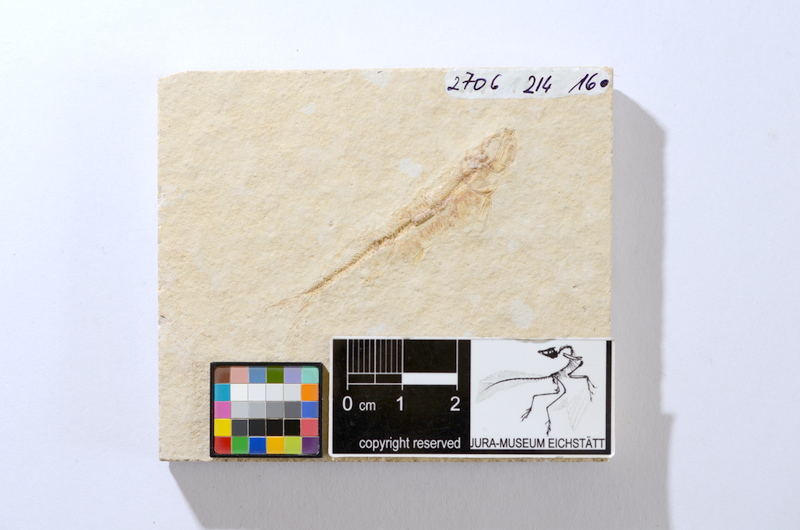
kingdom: Animalia
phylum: Chordata
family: Allothrissopidae
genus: Allothrissops
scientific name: Allothrissops mesogaster
